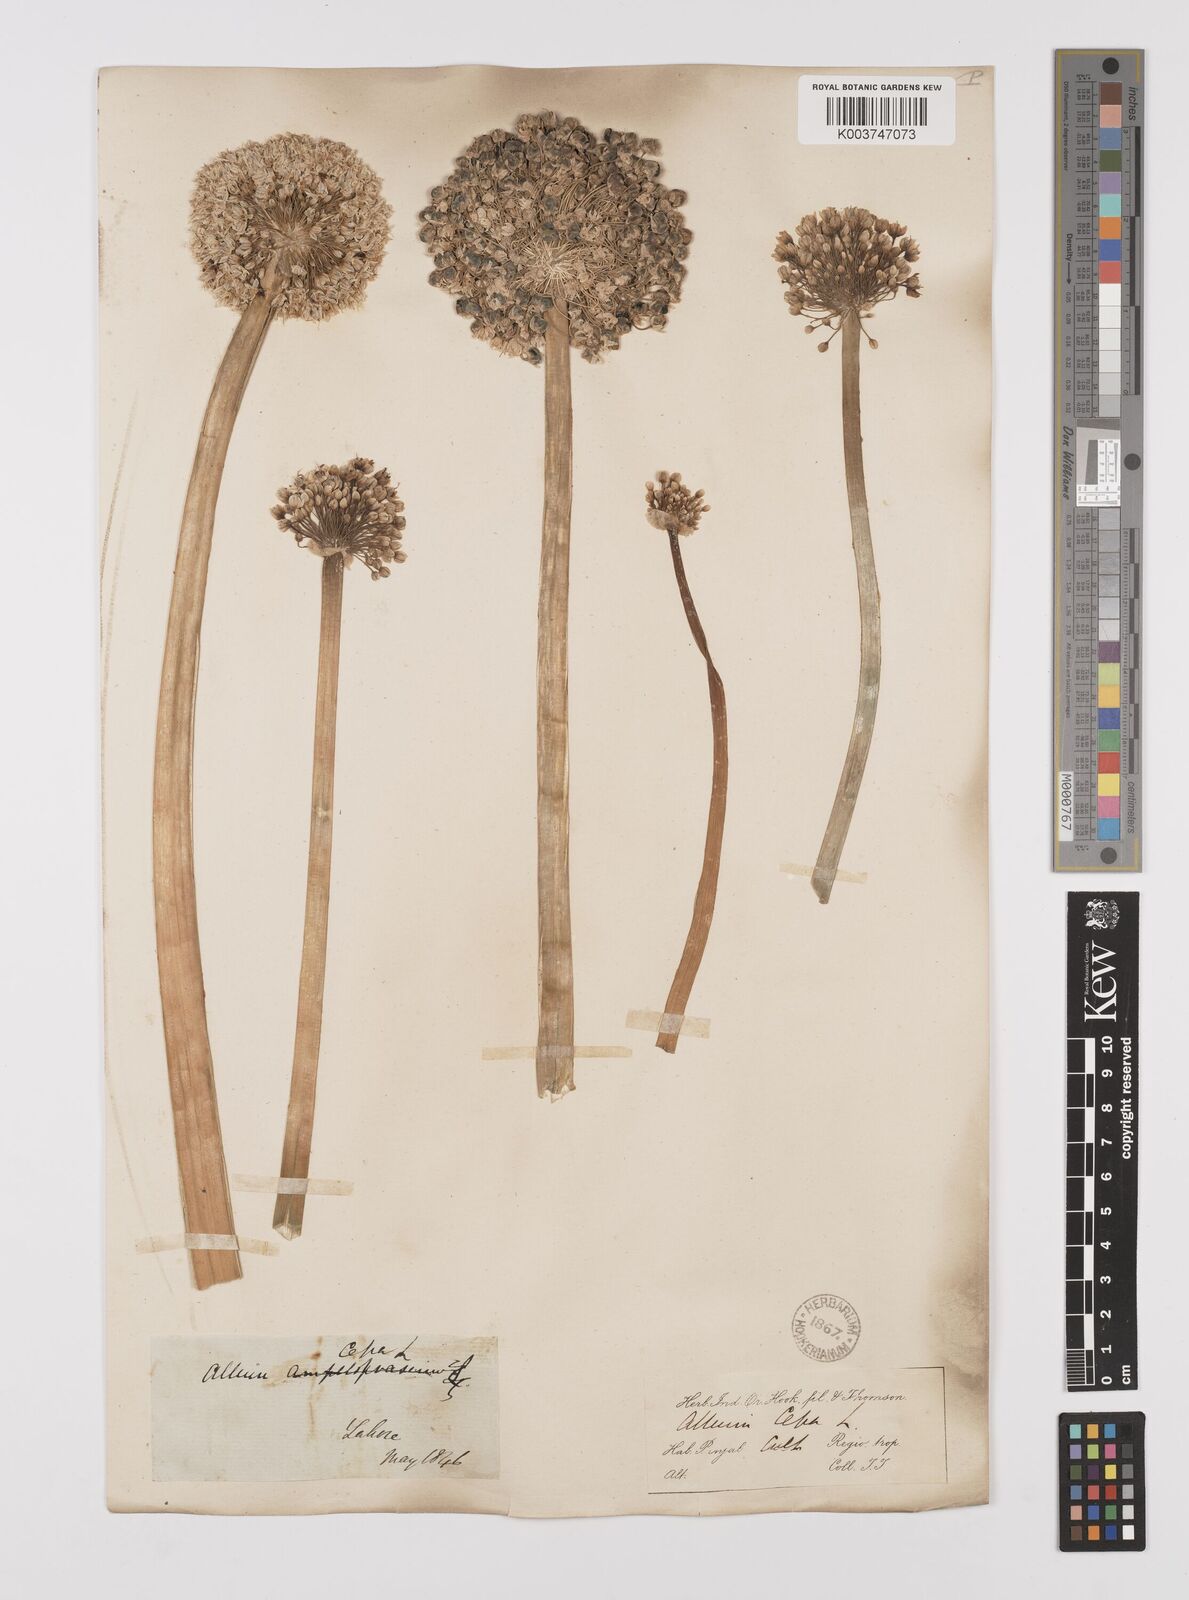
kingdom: Plantae
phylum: Tracheophyta
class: Liliopsida
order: Asparagales
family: Amaryllidaceae
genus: Allium
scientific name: Allium cepa
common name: Onion
